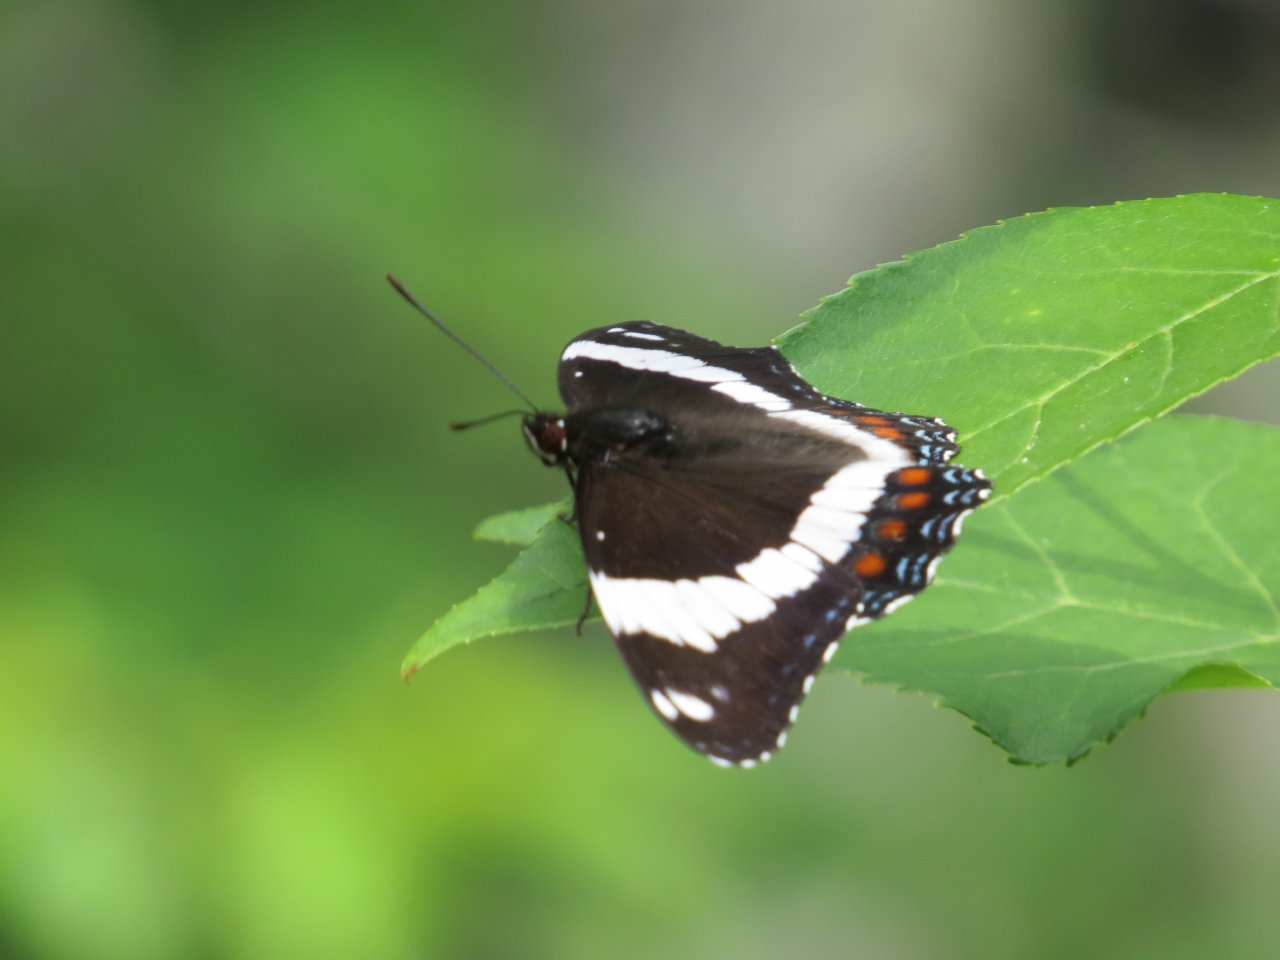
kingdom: Animalia
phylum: Arthropoda
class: Insecta
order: Lepidoptera
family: Nymphalidae
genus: Limenitis
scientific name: Limenitis arthemis
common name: Red-spotted Admiral
